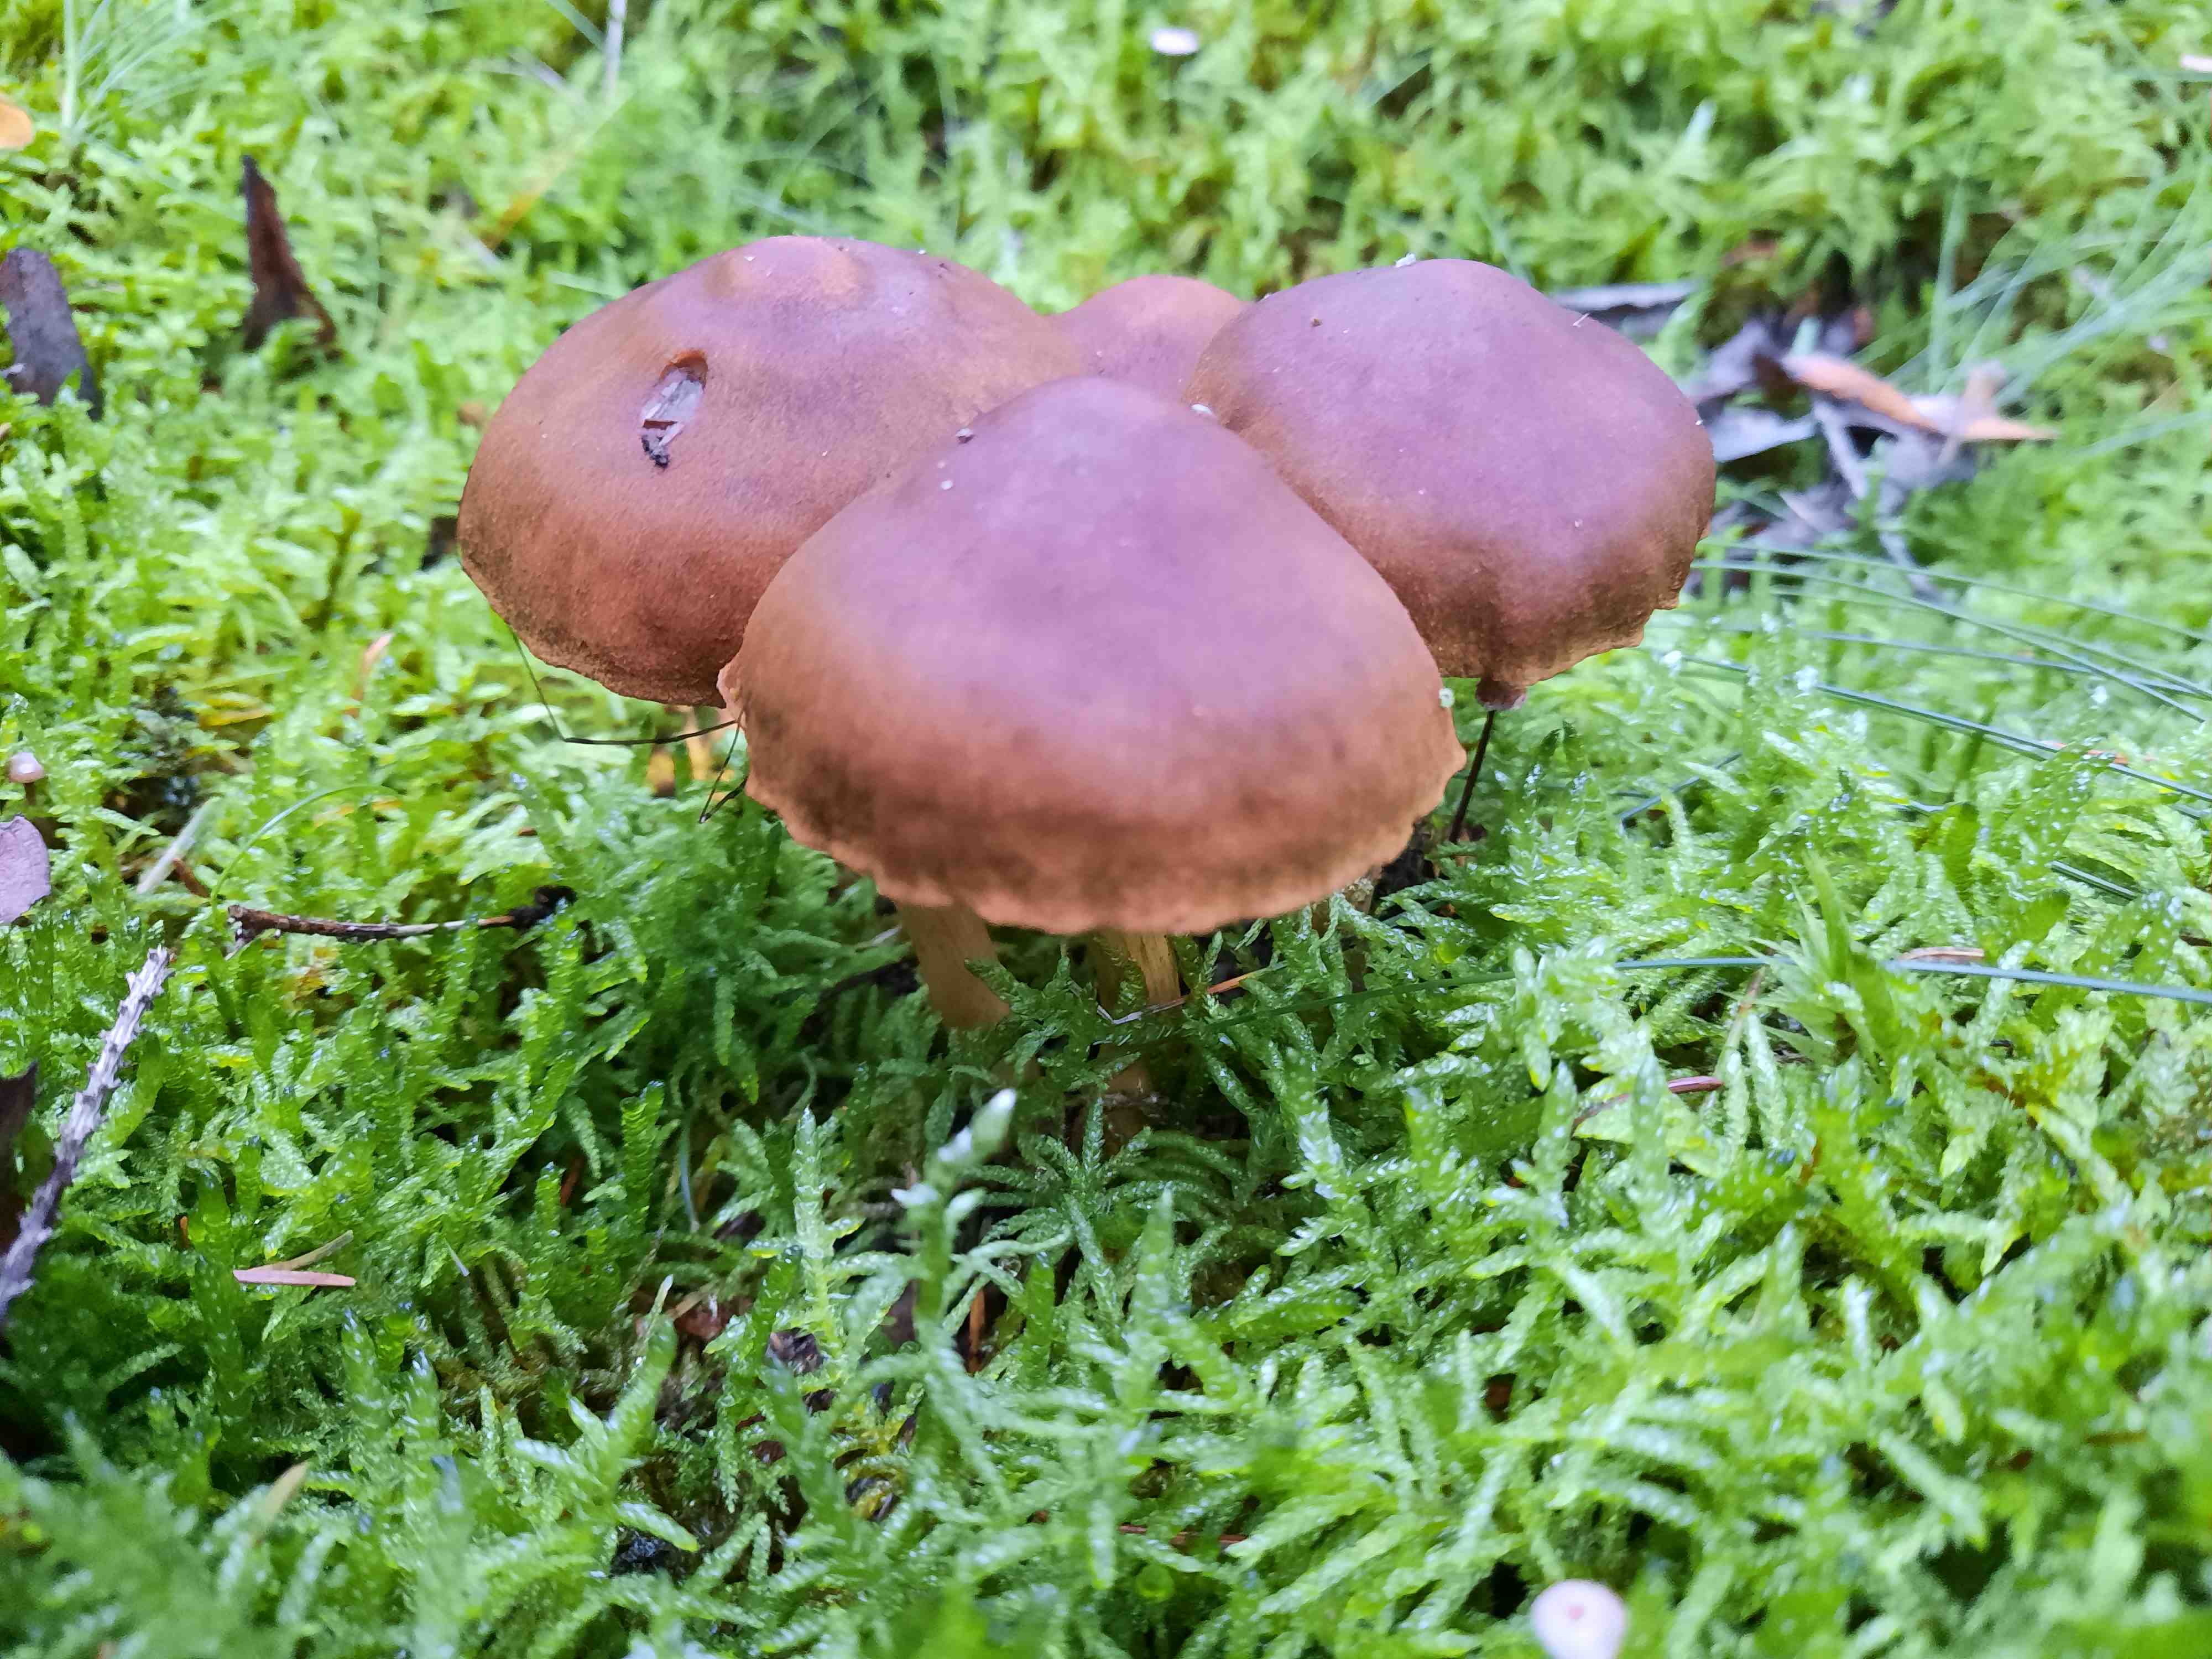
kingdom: Fungi
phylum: Basidiomycota
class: Agaricomycetes
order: Agaricales
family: Cortinariaceae
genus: Cortinarius
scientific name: Cortinarius
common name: cinnoberbladet slørhat
